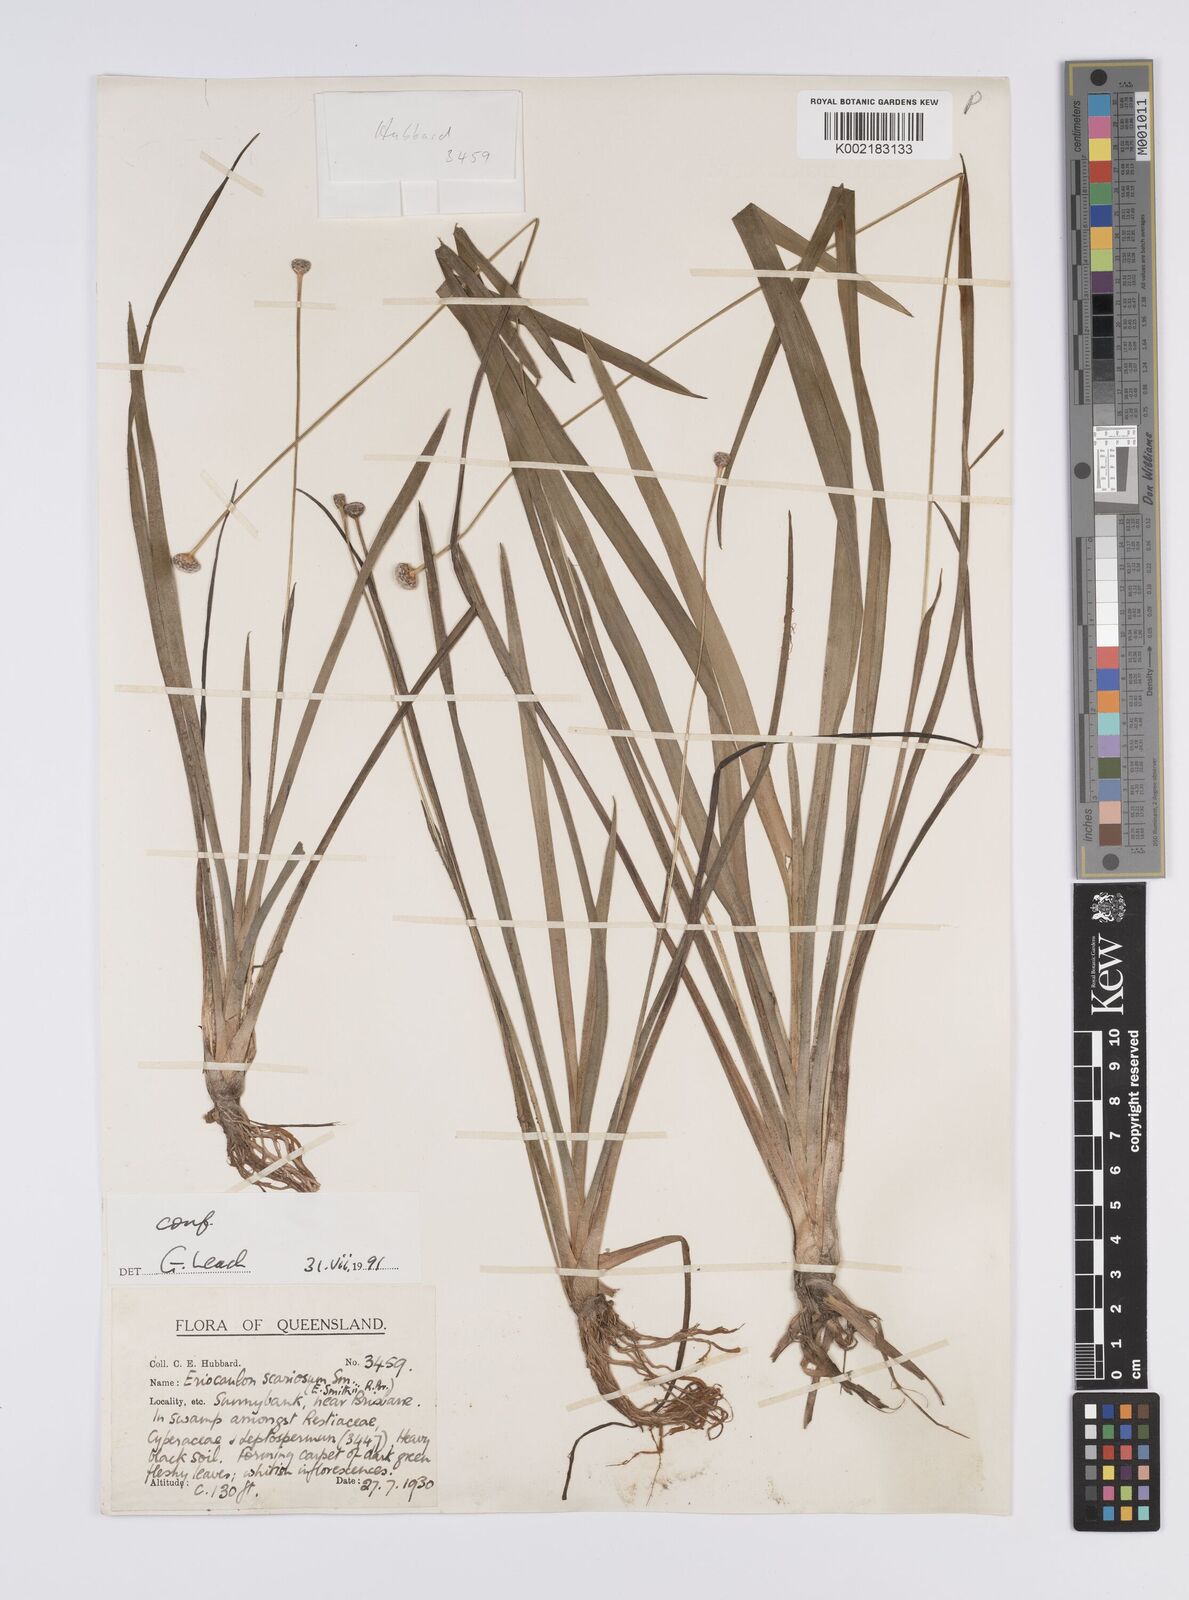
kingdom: Plantae
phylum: Tracheophyta
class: Liliopsida
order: Poales
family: Eriocaulaceae
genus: Eriocaulon
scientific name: Eriocaulon australe
